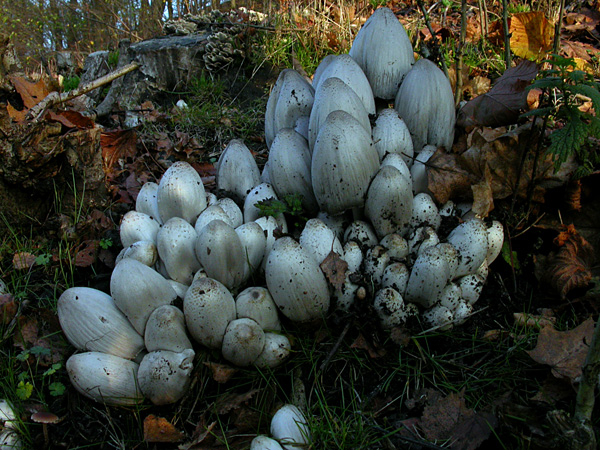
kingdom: Fungi
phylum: Basidiomycota
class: Agaricomycetes
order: Agaricales
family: Psathyrellaceae
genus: Coprinopsis
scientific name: Coprinopsis atramentaria
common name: almindelig blækhat
